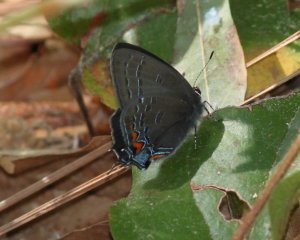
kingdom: Animalia
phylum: Arthropoda
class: Insecta
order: Lepidoptera
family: Lycaenidae
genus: Satyrium
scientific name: Satyrium calanus
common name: Banded Hairstreak
